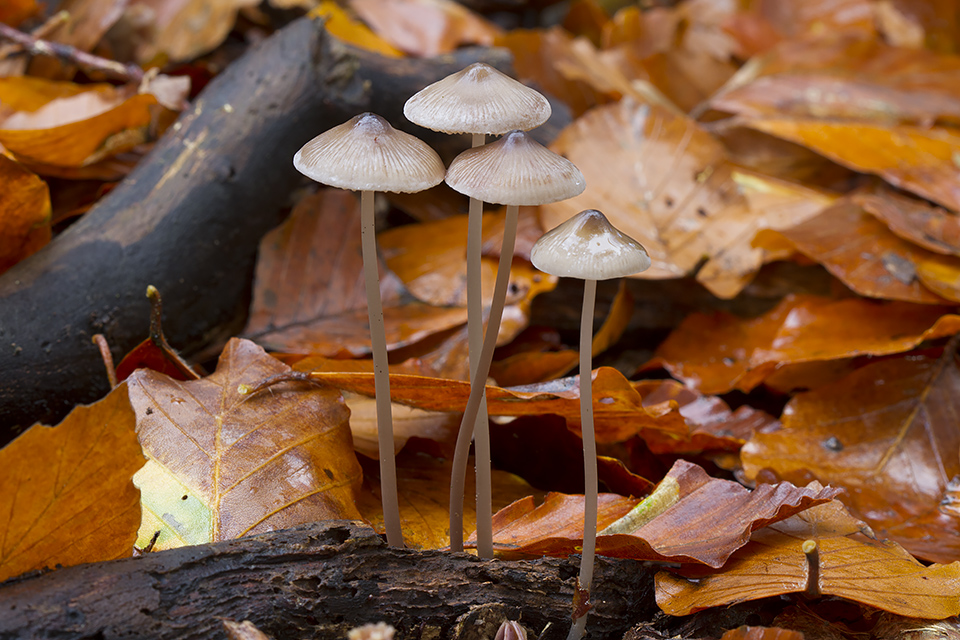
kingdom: Fungi
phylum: Basidiomycota
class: Agaricomycetes
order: Agaricales
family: Mycenaceae
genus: Mycena
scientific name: Mycena polygramma
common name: mangestribet huesvamp
